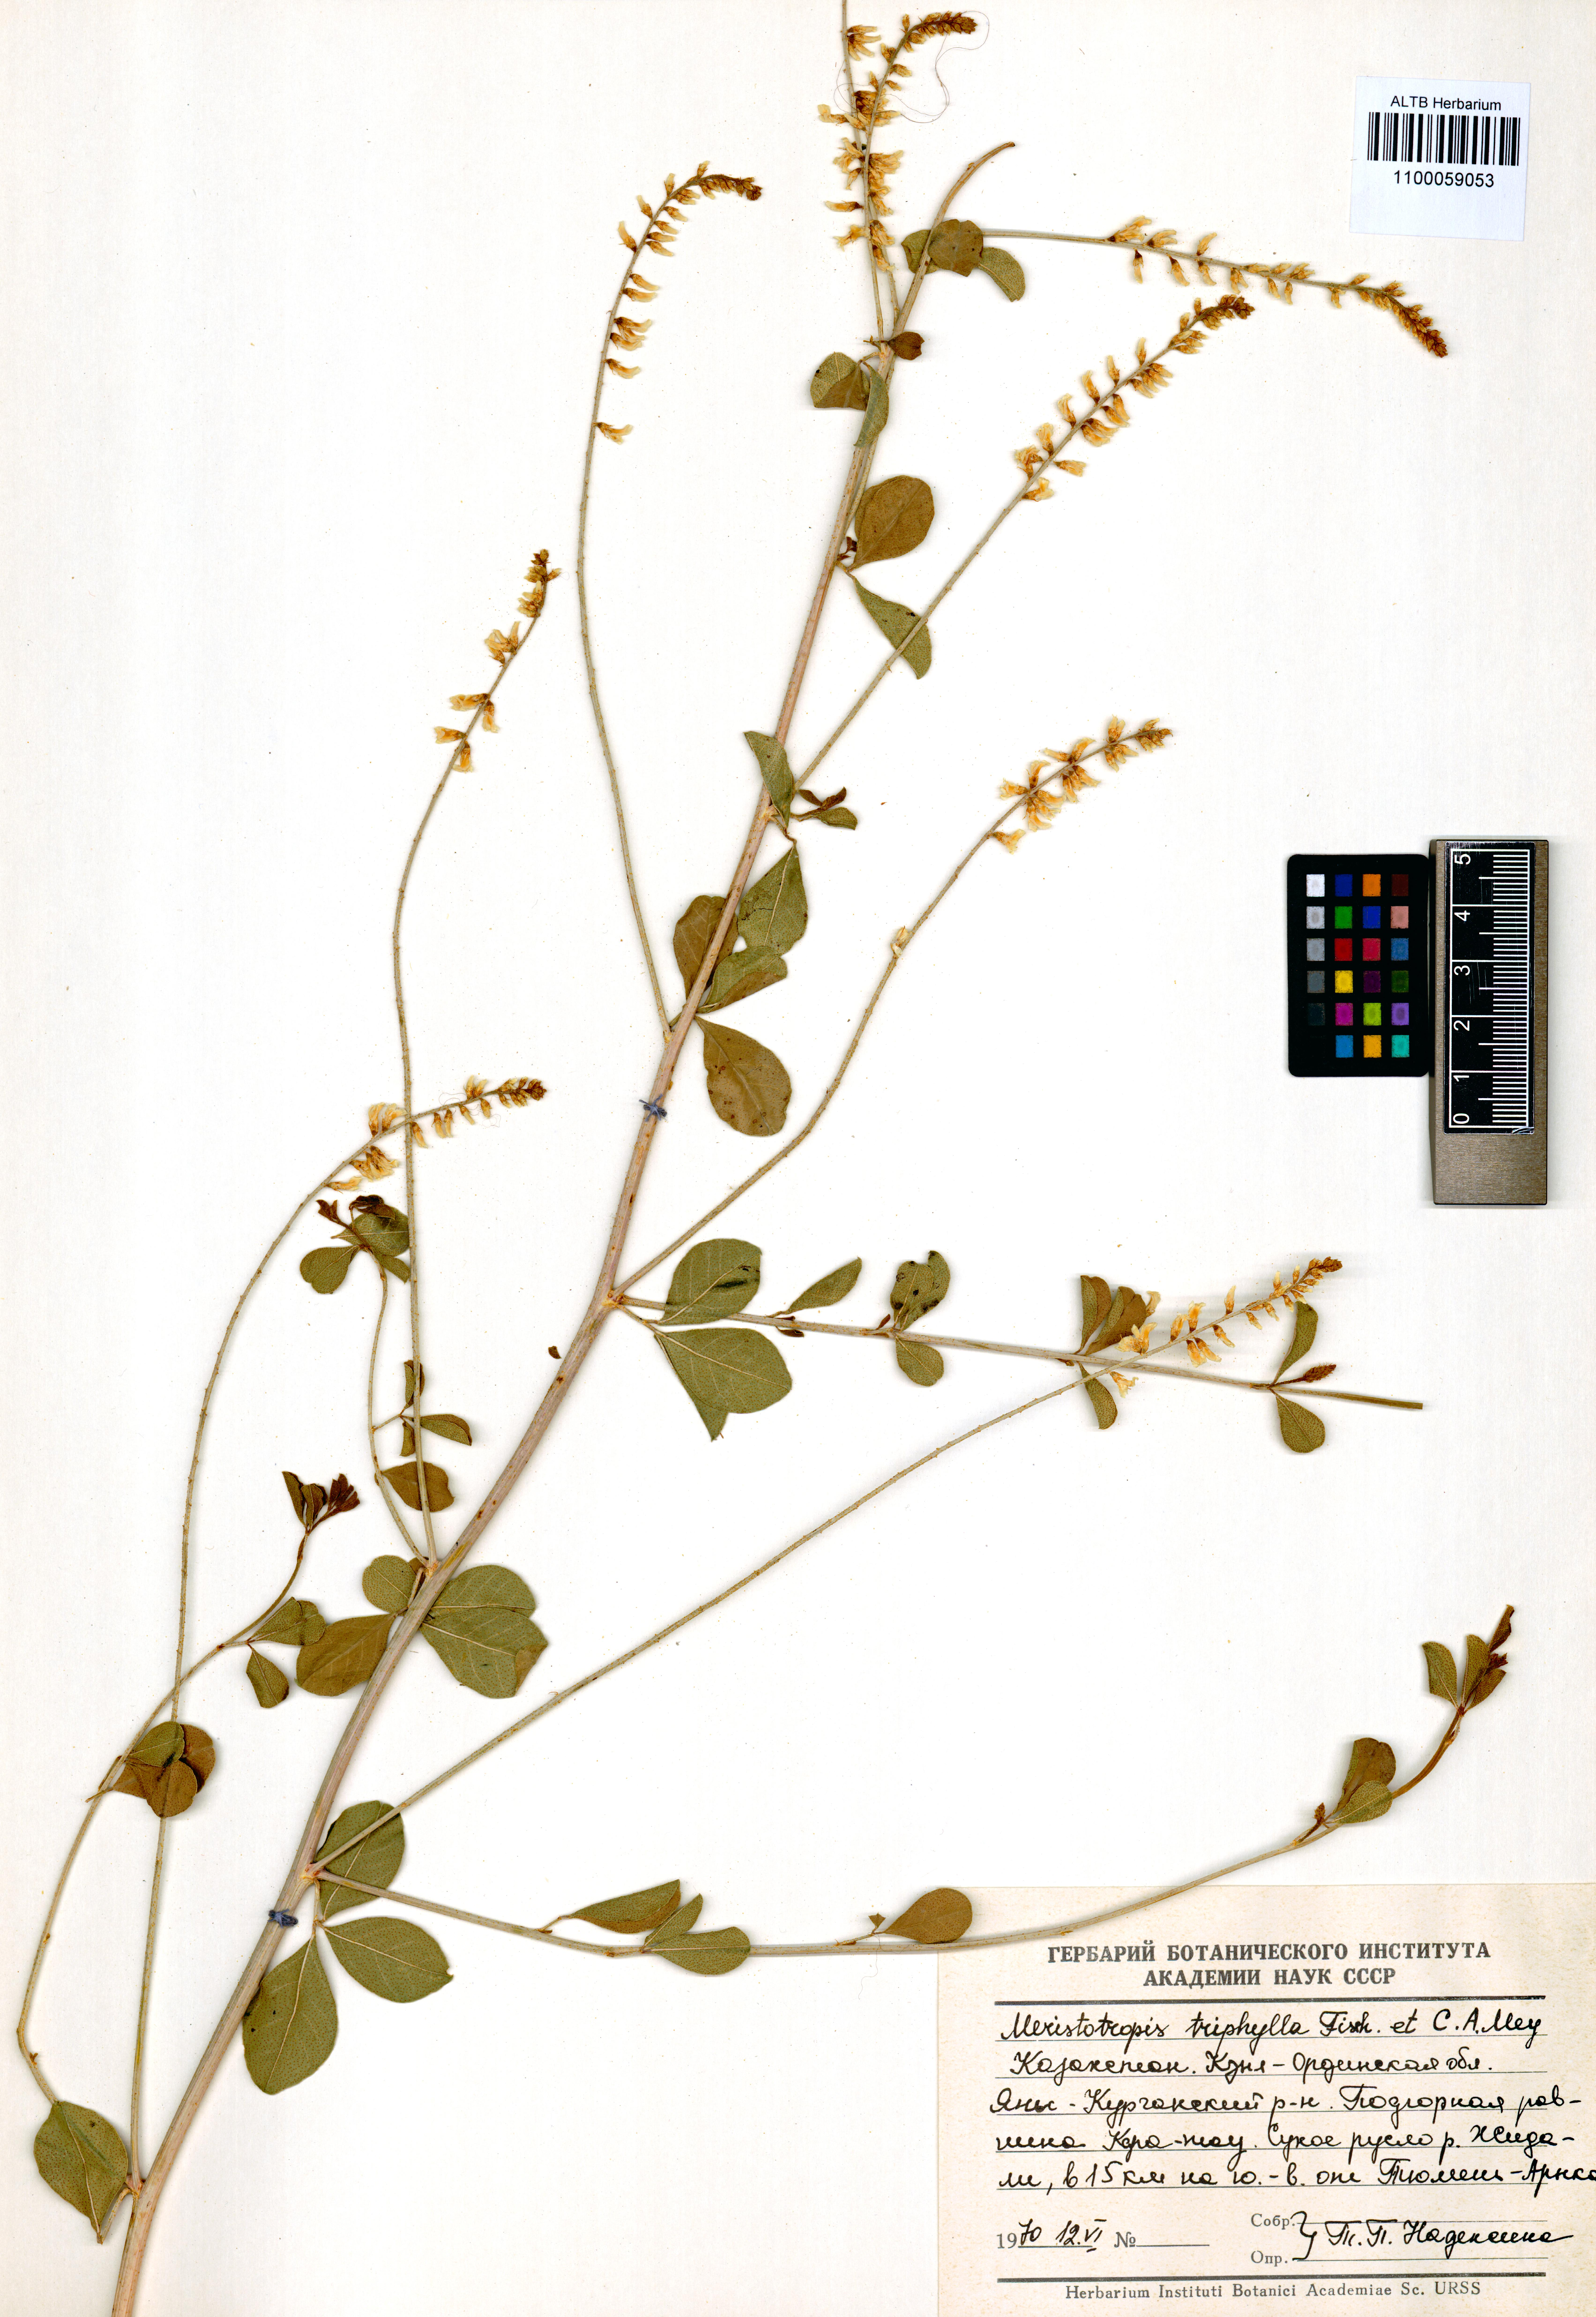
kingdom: Plantae
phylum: Tracheophyta
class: Magnoliopsida
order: Fabales
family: Fabaceae
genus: Glycyrrhiza
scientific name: Glycyrrhiza triphylla
